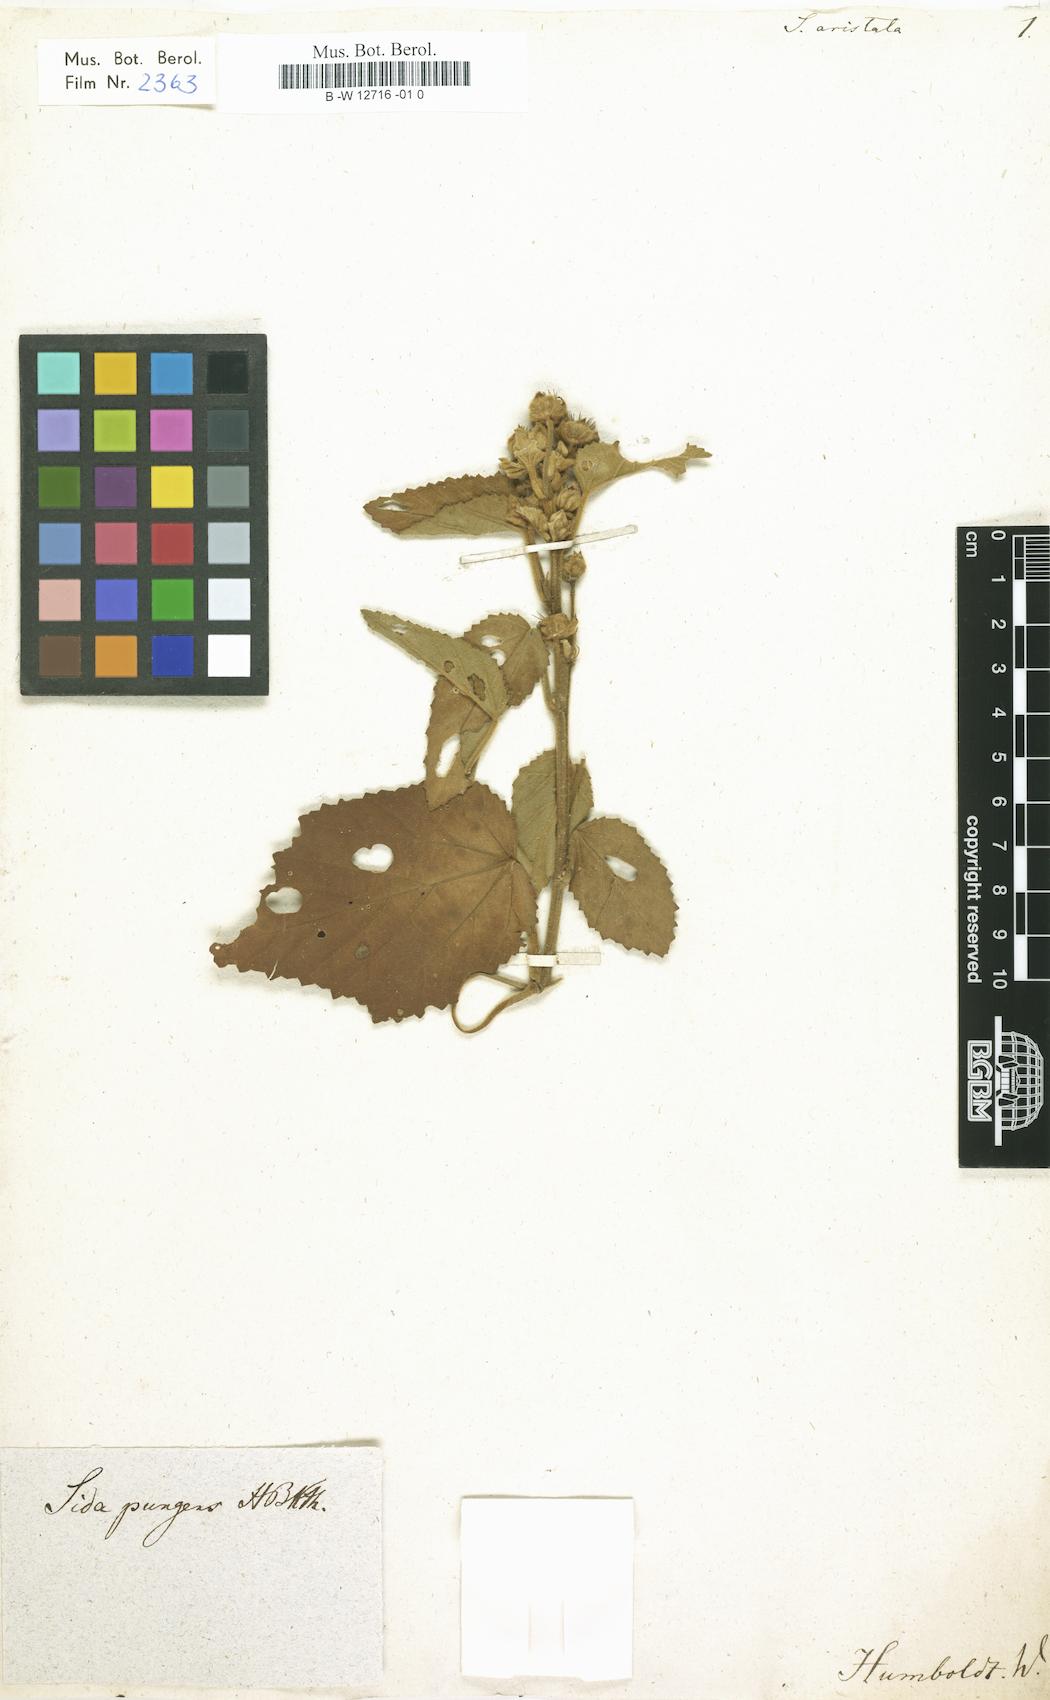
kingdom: Plantae
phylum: Tracheophyta
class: Magnoliopsida
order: Malvales
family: Malvaceae
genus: Sida
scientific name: Sida cordifolia
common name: Ilima
